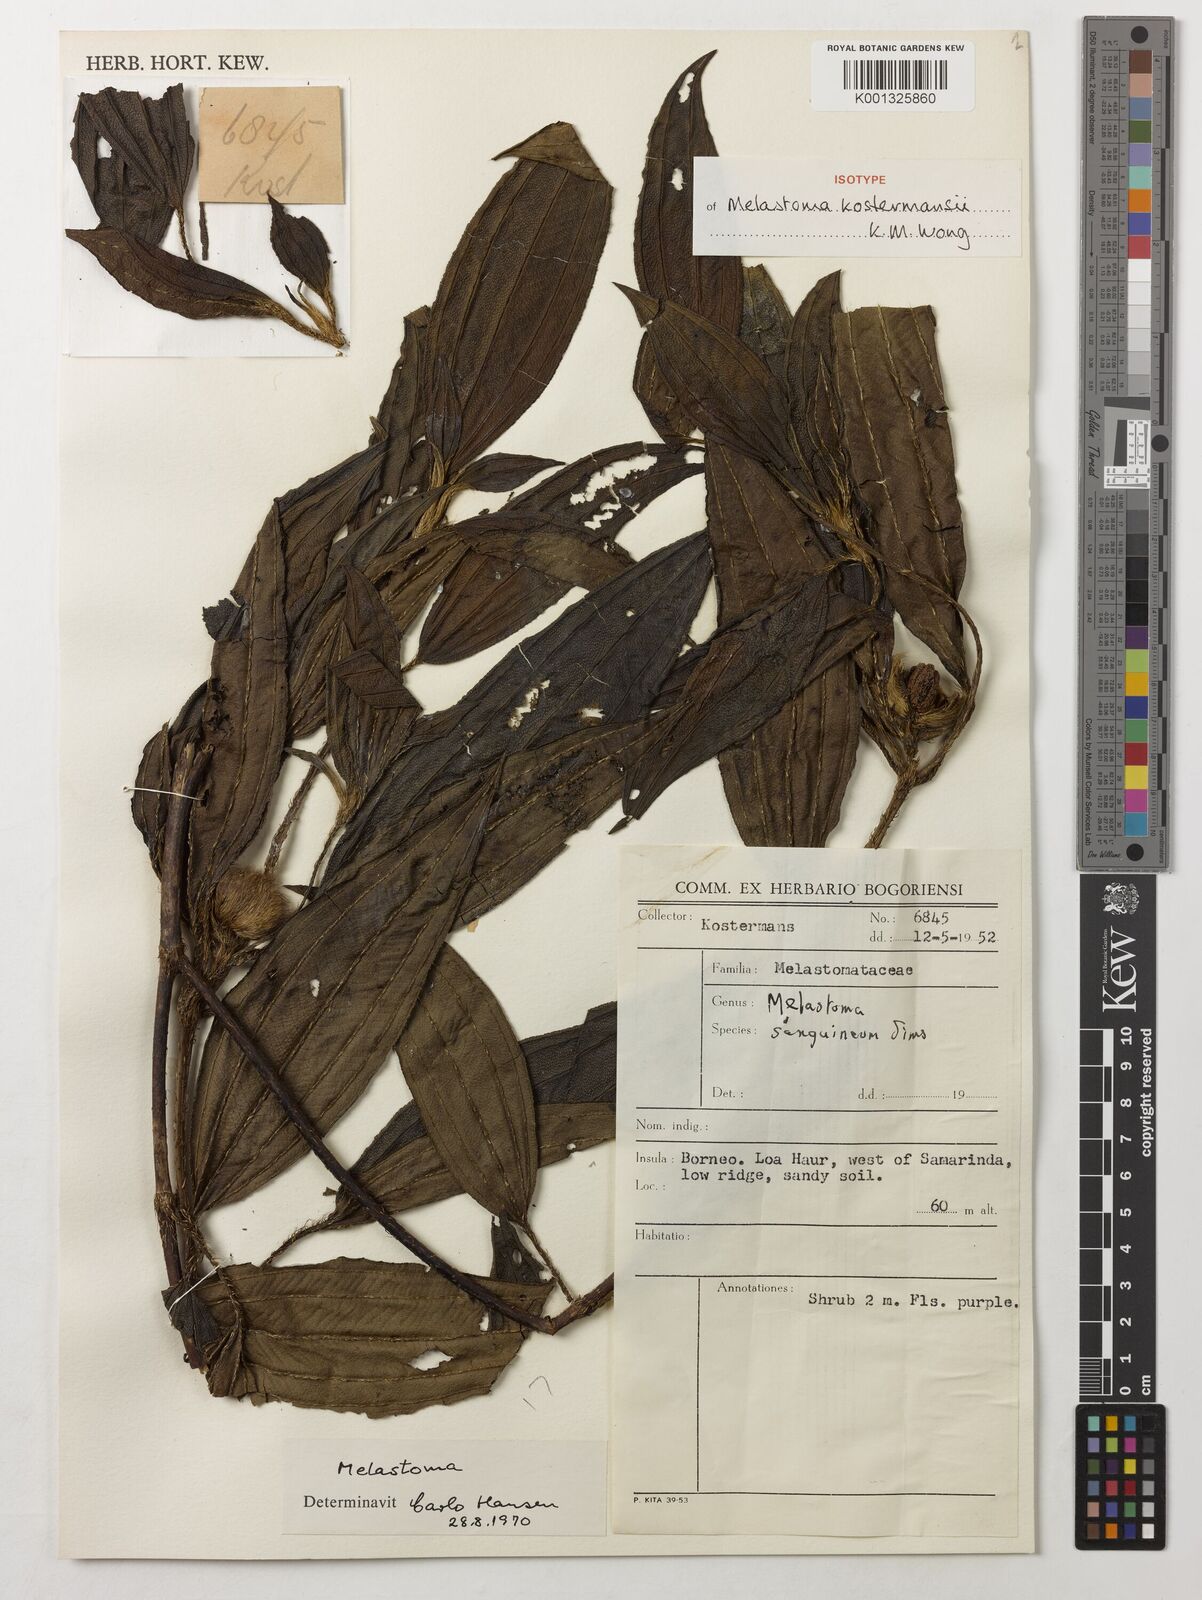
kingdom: Plantae
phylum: Tracheophyta
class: Magnoliopsida
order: Myrtales
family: Melastomataceae
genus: Melastoma
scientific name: Melastoma
